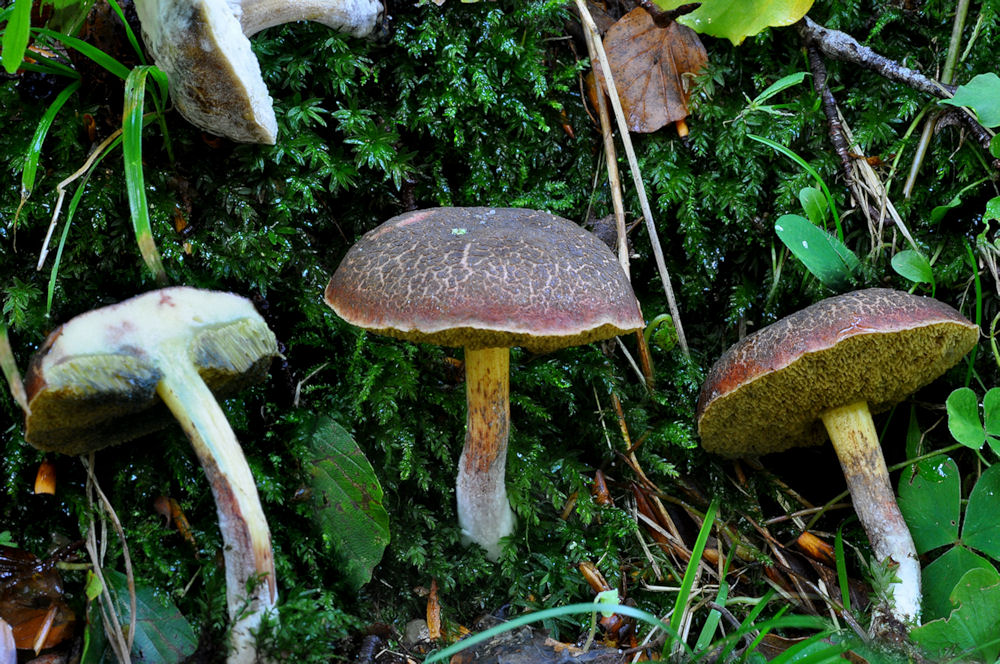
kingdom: Fungi
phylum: Basidiomycota
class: Agaricomycetes
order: Boletales
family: Boletaceae
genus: Xerocomellus
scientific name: Xerocomellus cisalpinus
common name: finsprukken rørhat
